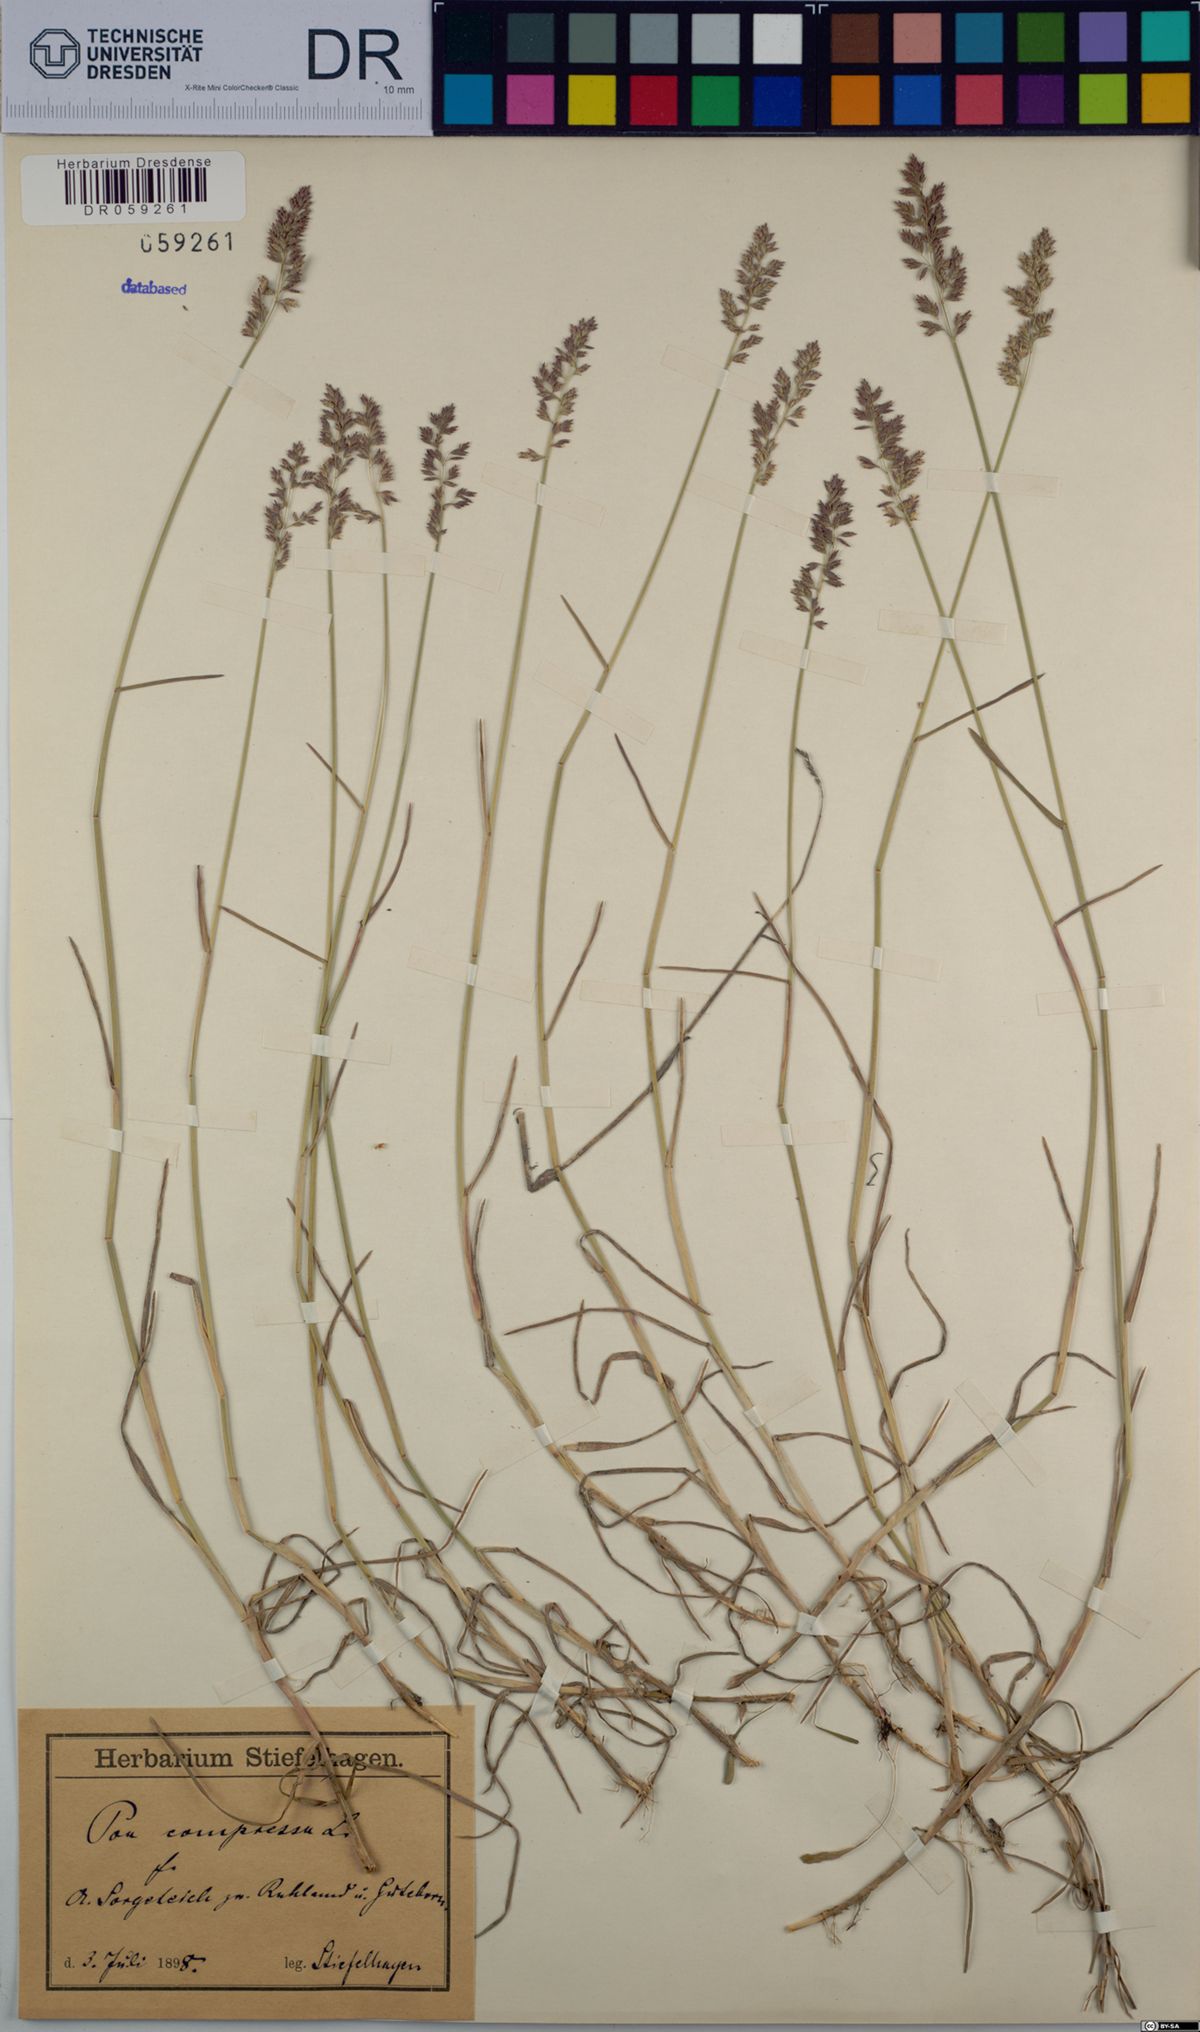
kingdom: Plantae
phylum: Tracheophyta
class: Liliopsida
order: Poales
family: Poaceae
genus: Poa
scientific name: Poa compressa
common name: Canada bluegrass
